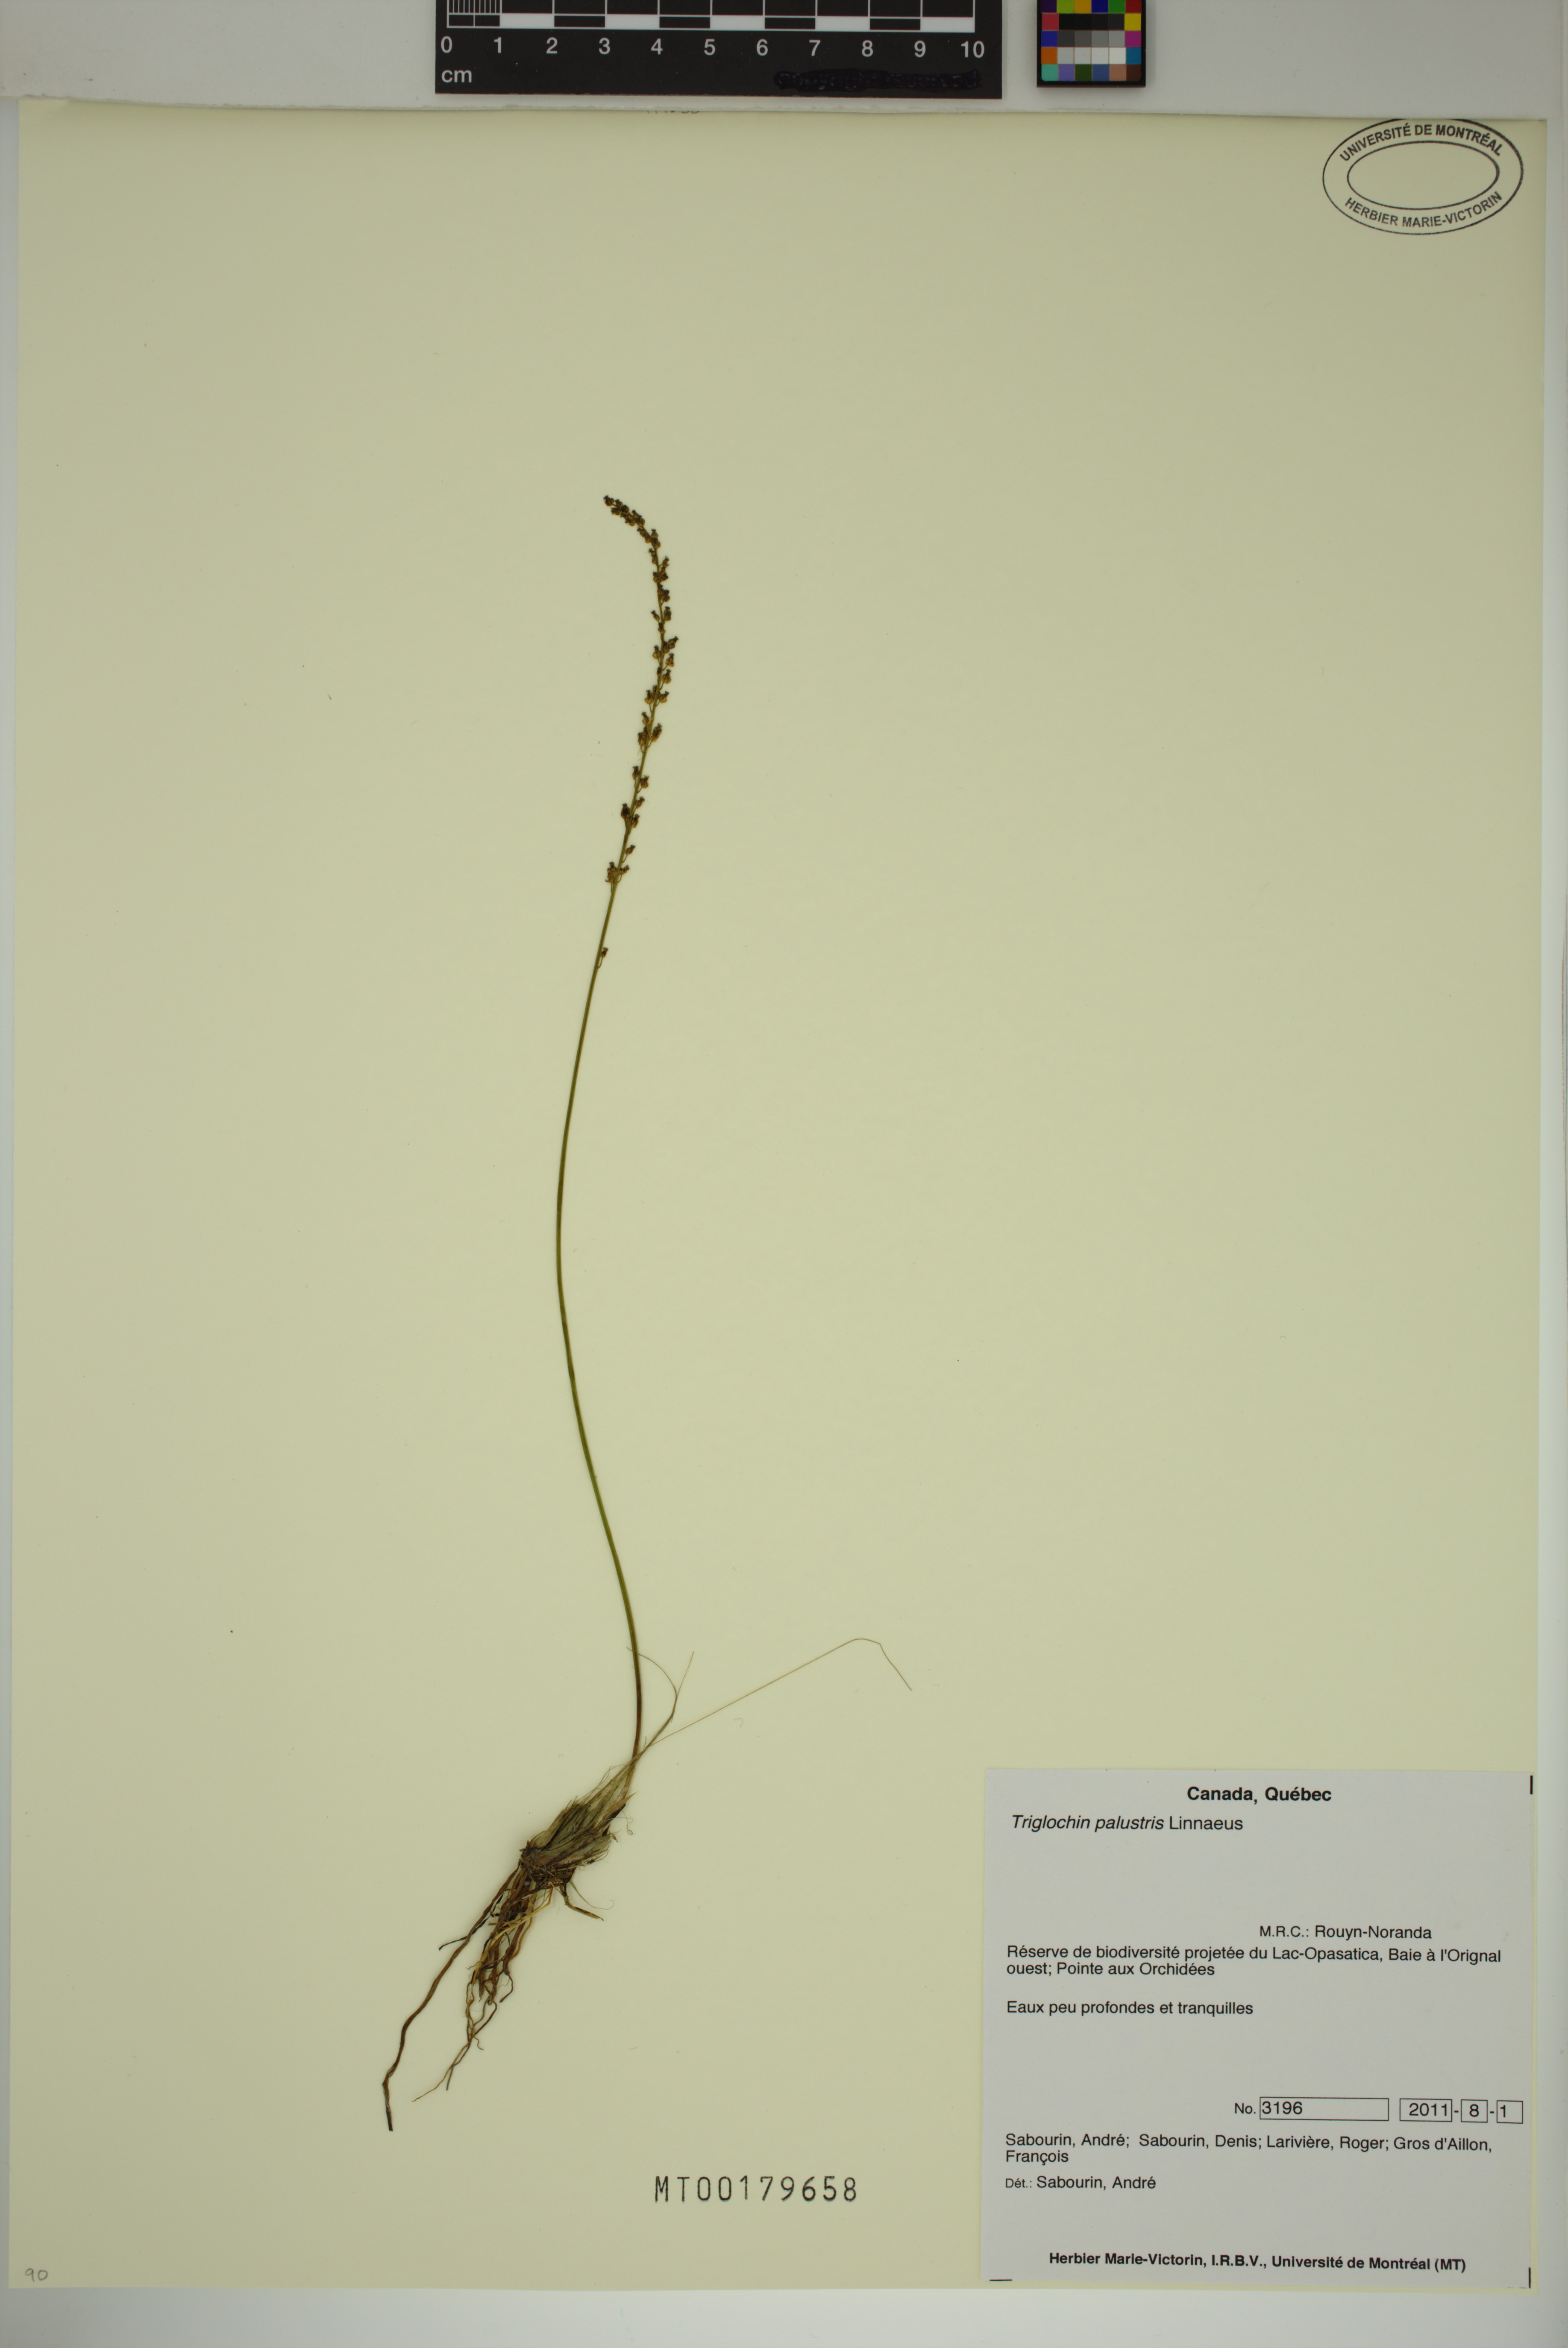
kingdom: Plantae
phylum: Tracheophyta
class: Liliopsida
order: Alismatales
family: Juncaginaceae
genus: Triglochin
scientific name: Triglochin palustris
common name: Marsh arrowgrass
